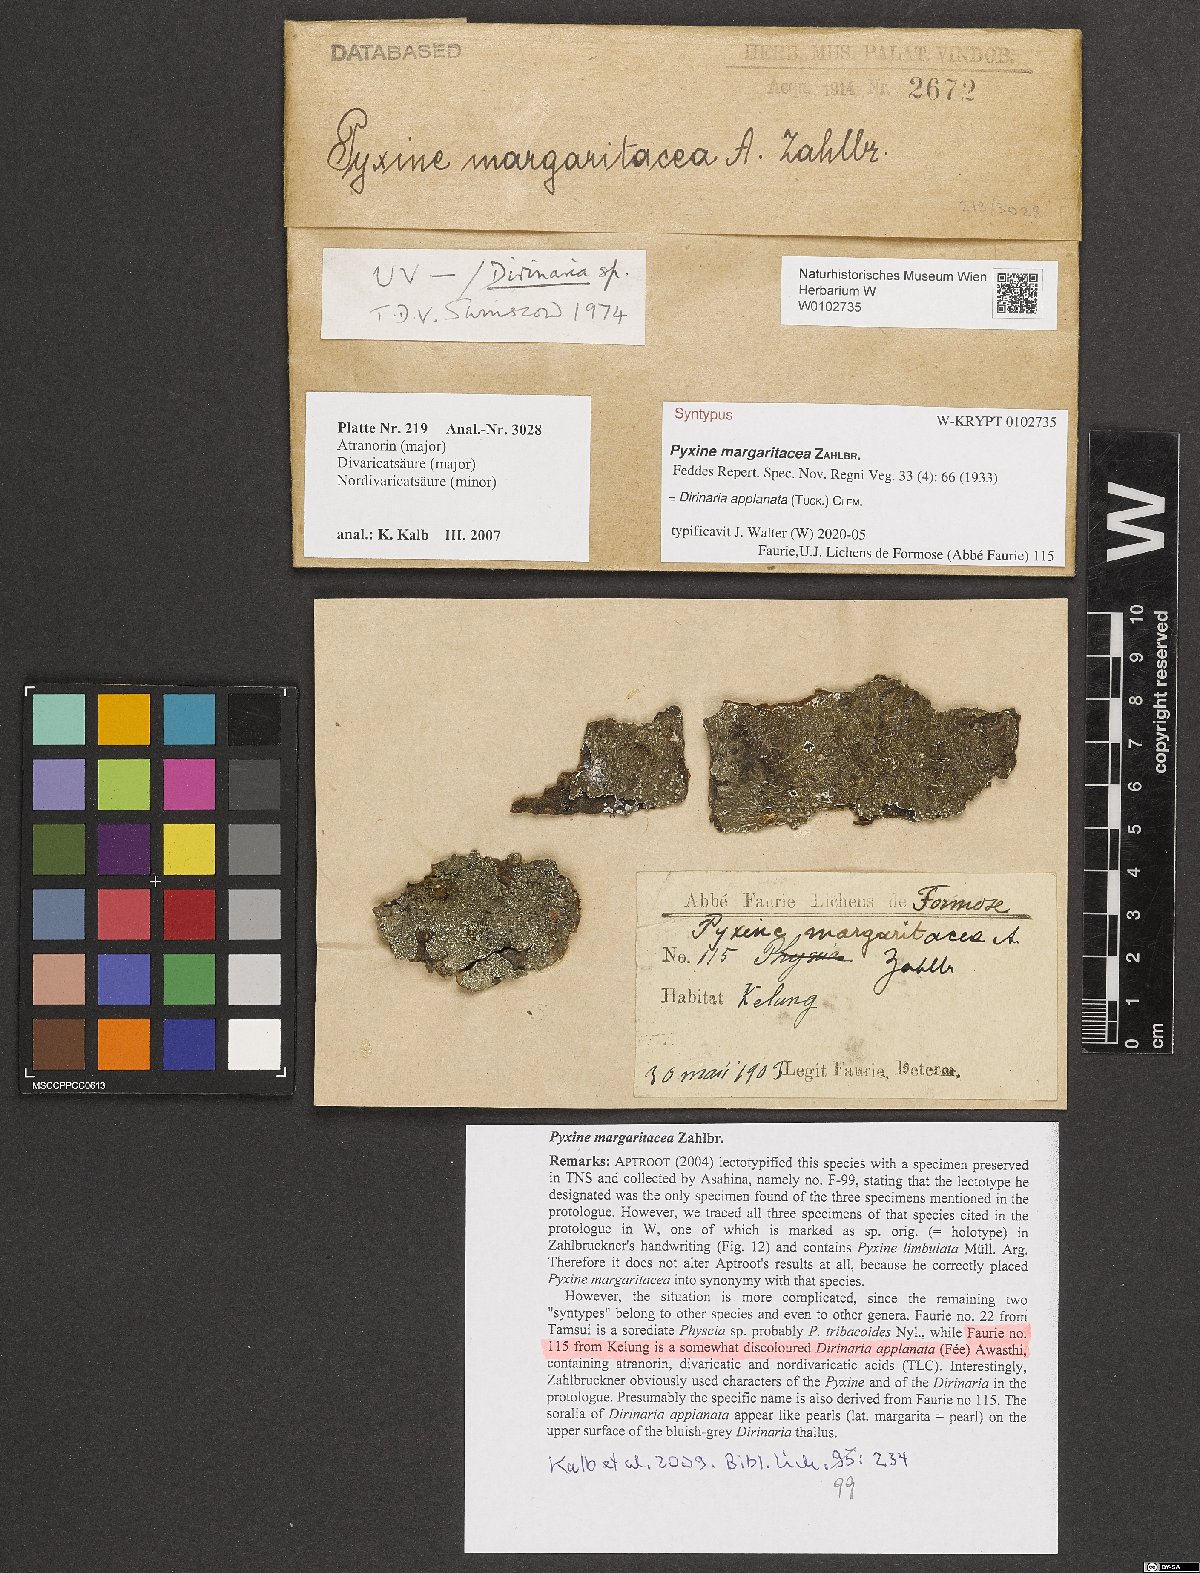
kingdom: Fungi
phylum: Ascomycota
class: Lecanoromycetes
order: Caliciales
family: Caliciaceae
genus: Pyxine
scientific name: Pyxine margaritacea
